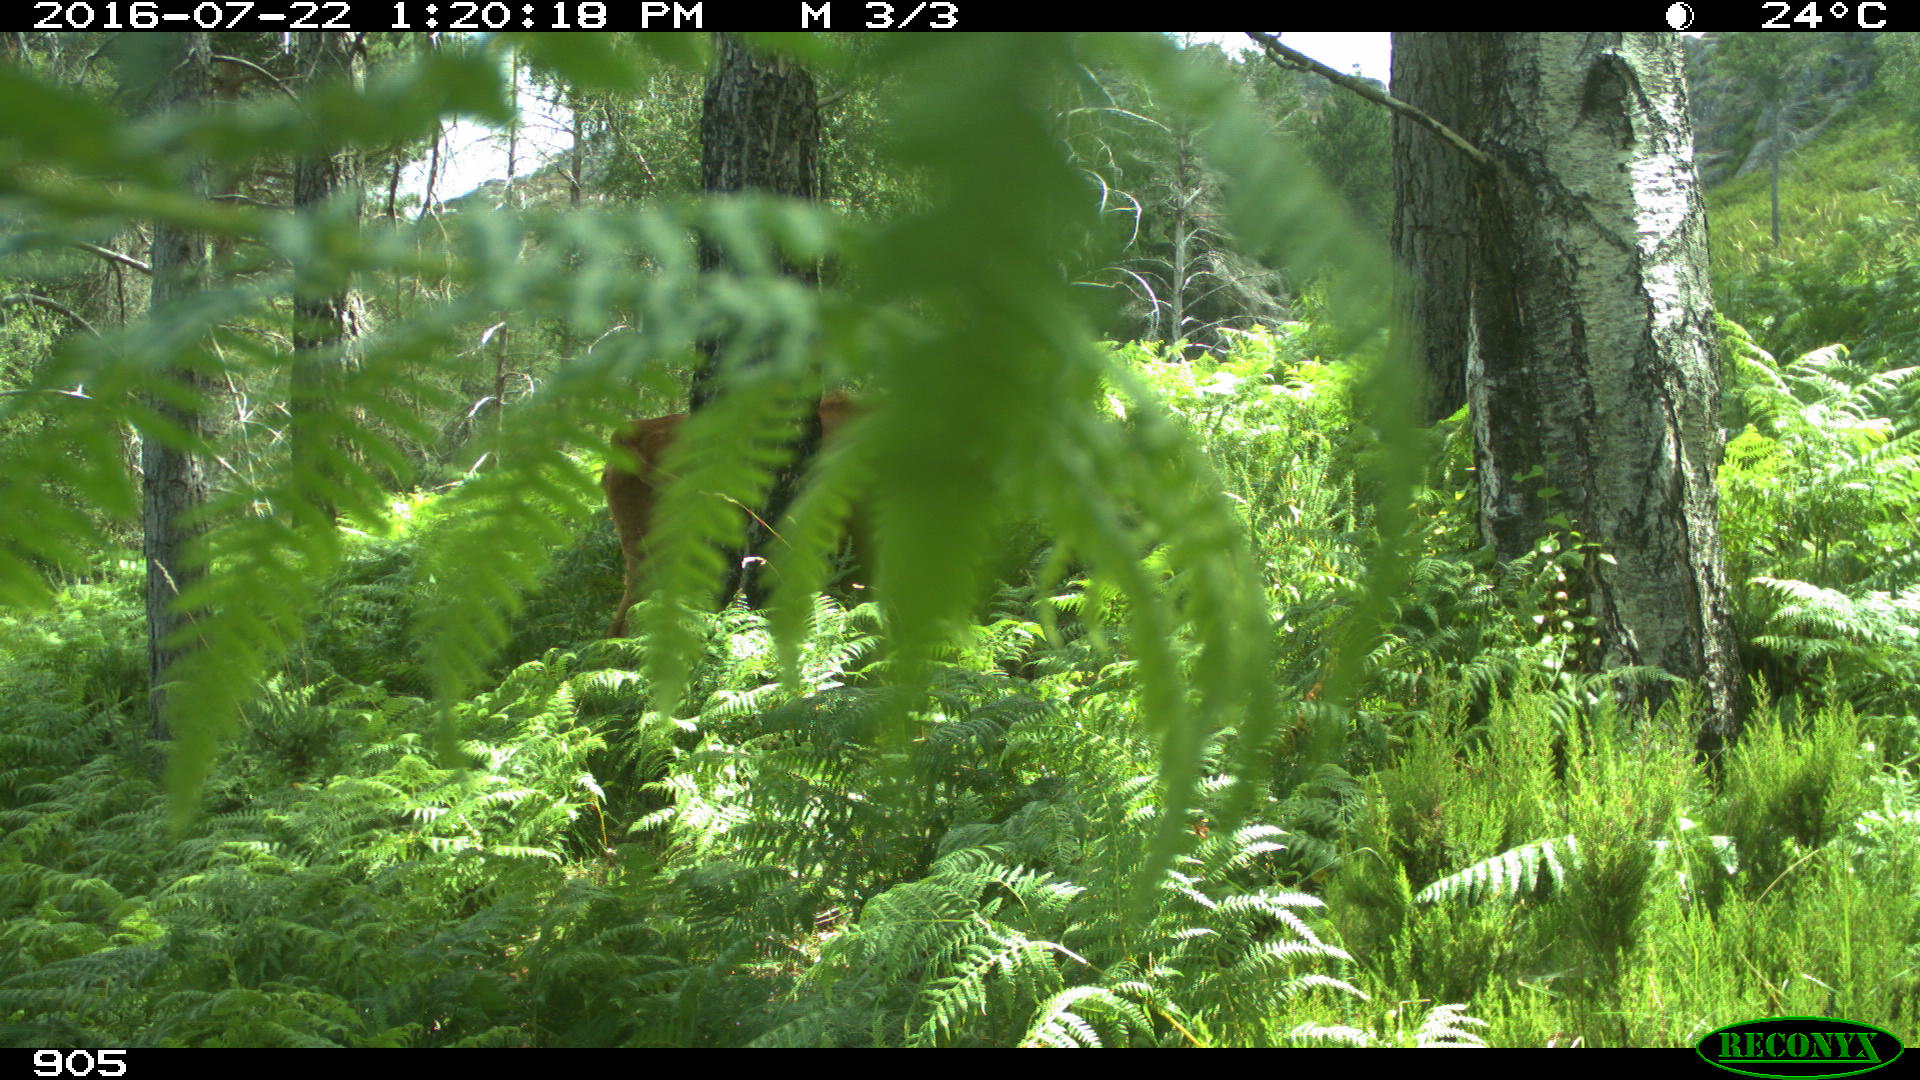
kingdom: Animalia
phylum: Chordata
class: Mammalia
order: Artiodactyla
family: Bovidae
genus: Bos
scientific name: Bos taurus
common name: Domesticated cattle
